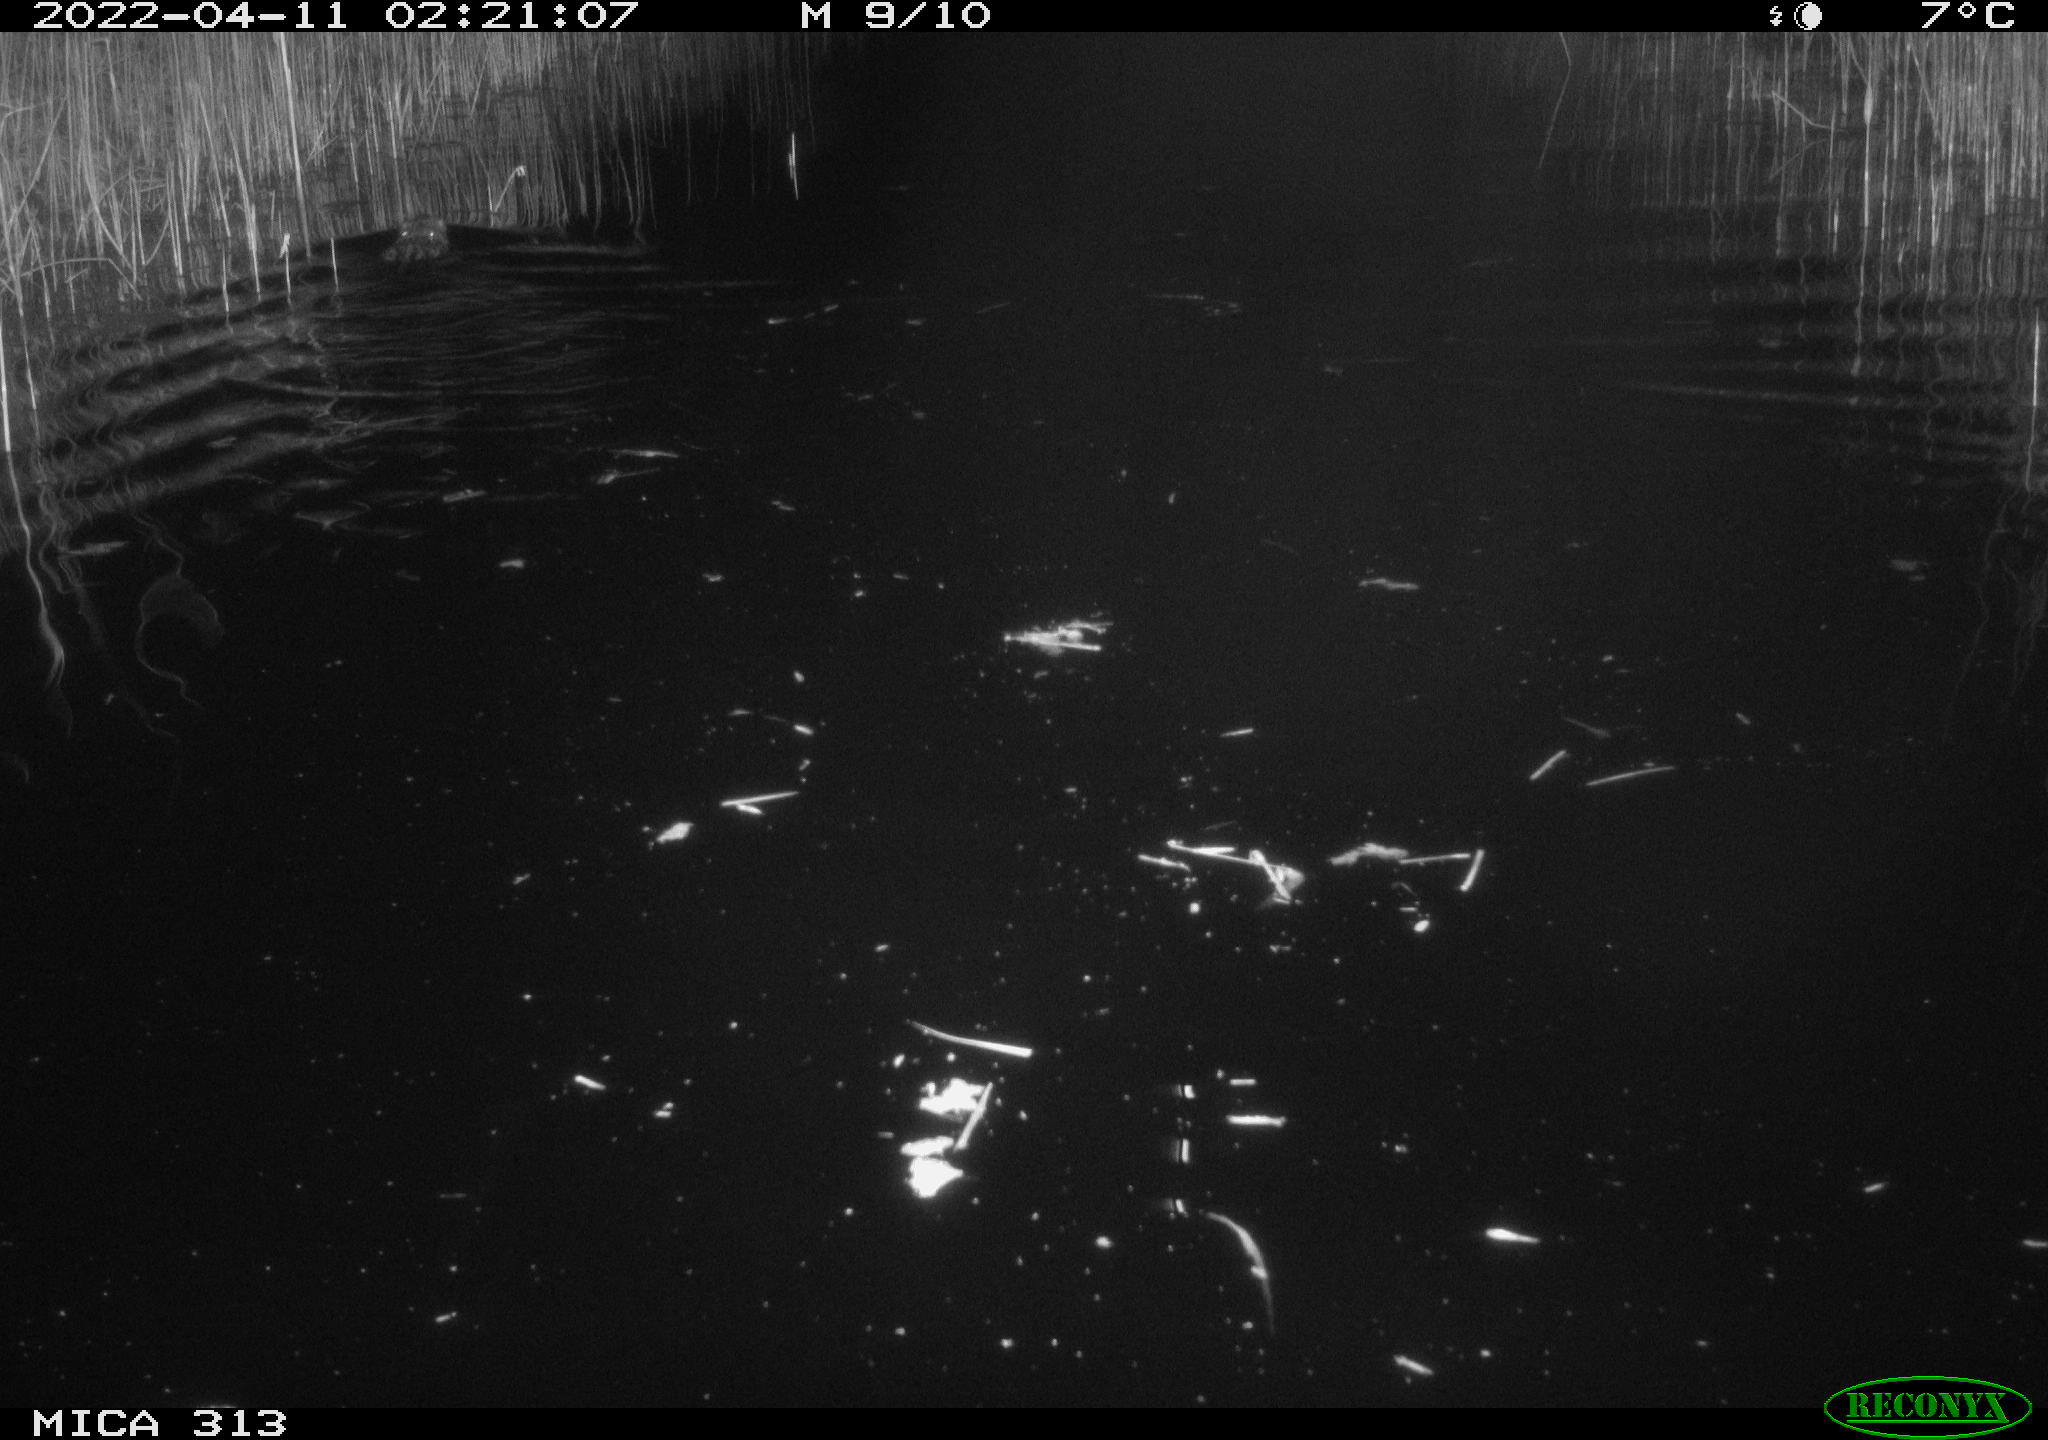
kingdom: Animalia
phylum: Chordata
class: Mammalia
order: Rodentia
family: Cricetidae
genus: Ondatra
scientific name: Ondatra zibethicus
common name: Muskrat
